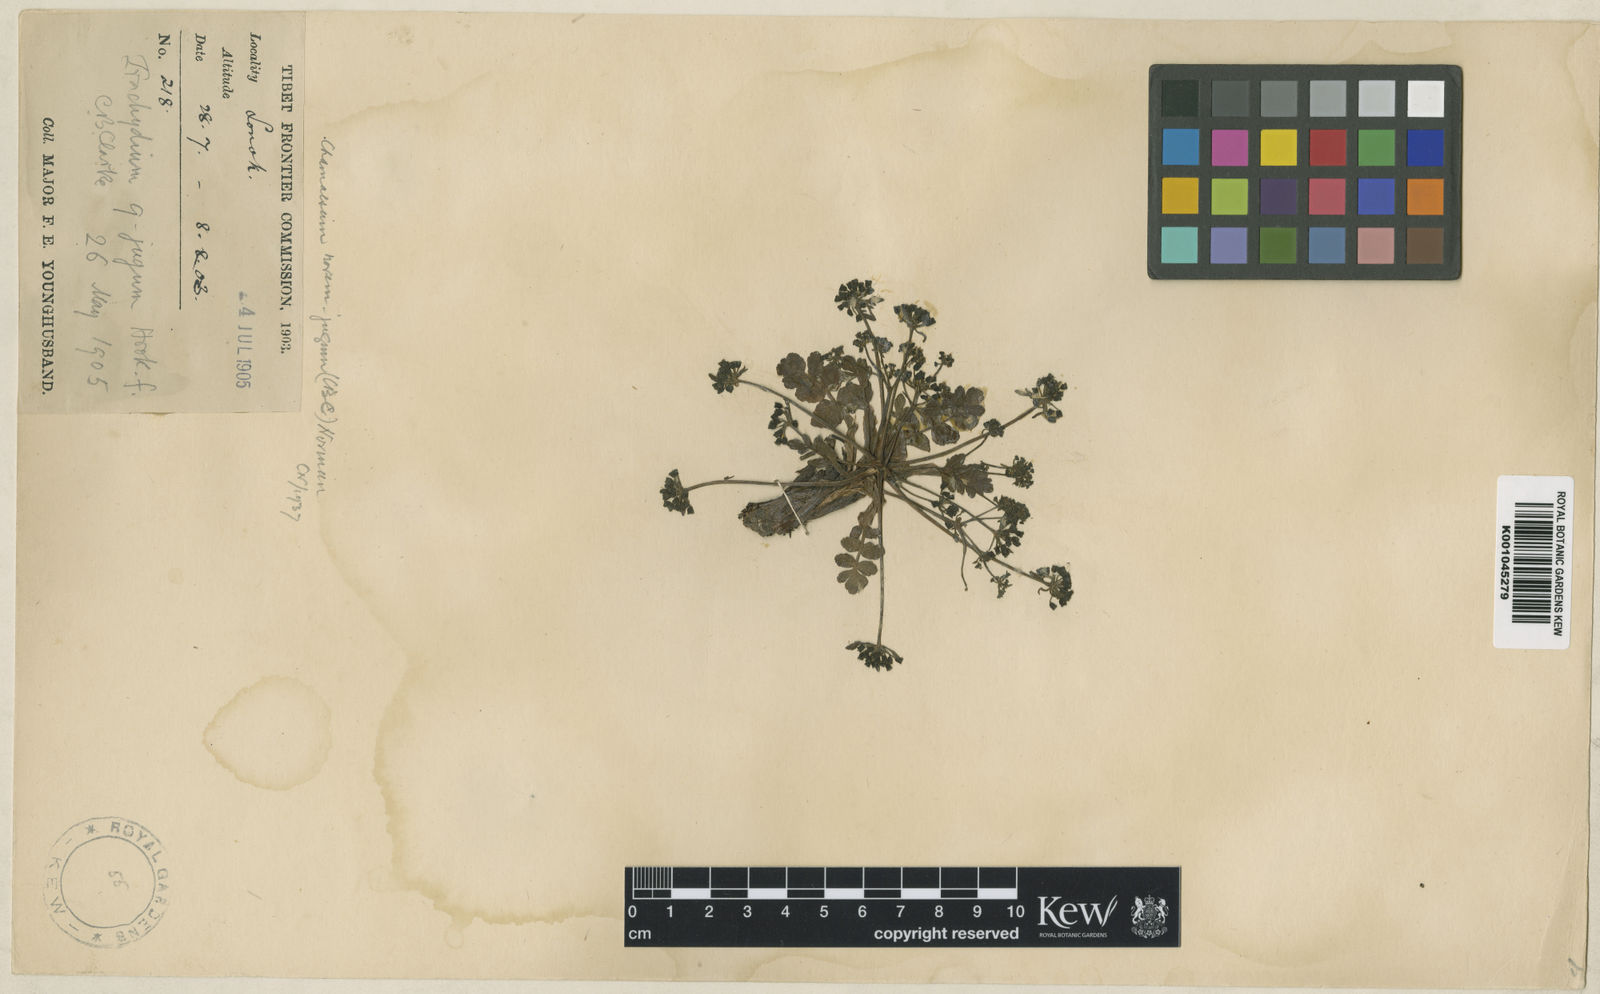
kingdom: Plantae
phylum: Tracheophyta
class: Magnoliopsida
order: Apiales
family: Apiaceae
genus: Chamaesium
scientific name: Chamaesium novem-jugum
